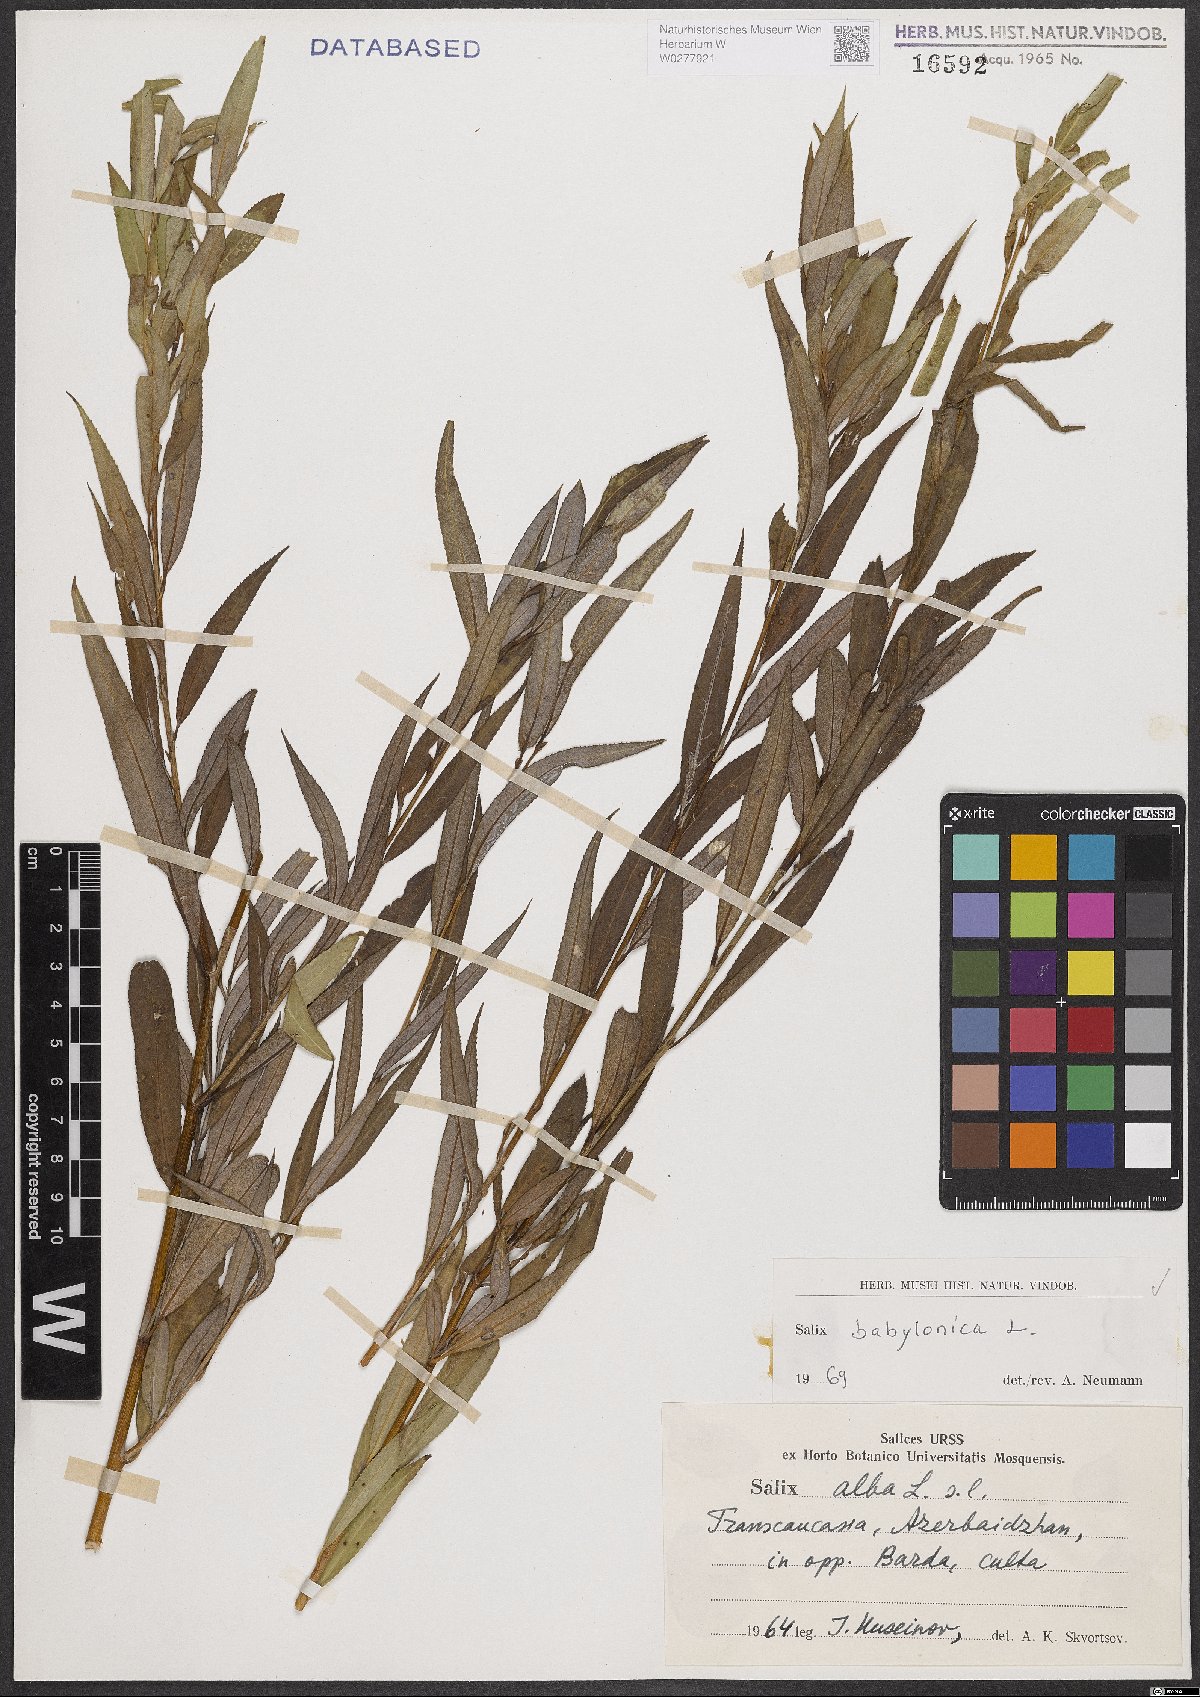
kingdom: Plantae
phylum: Tracheophyta
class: Magnoliopsida
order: Malpighiales
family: Salicaceae
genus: Salix
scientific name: Salix babylonica
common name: Weeping willow
